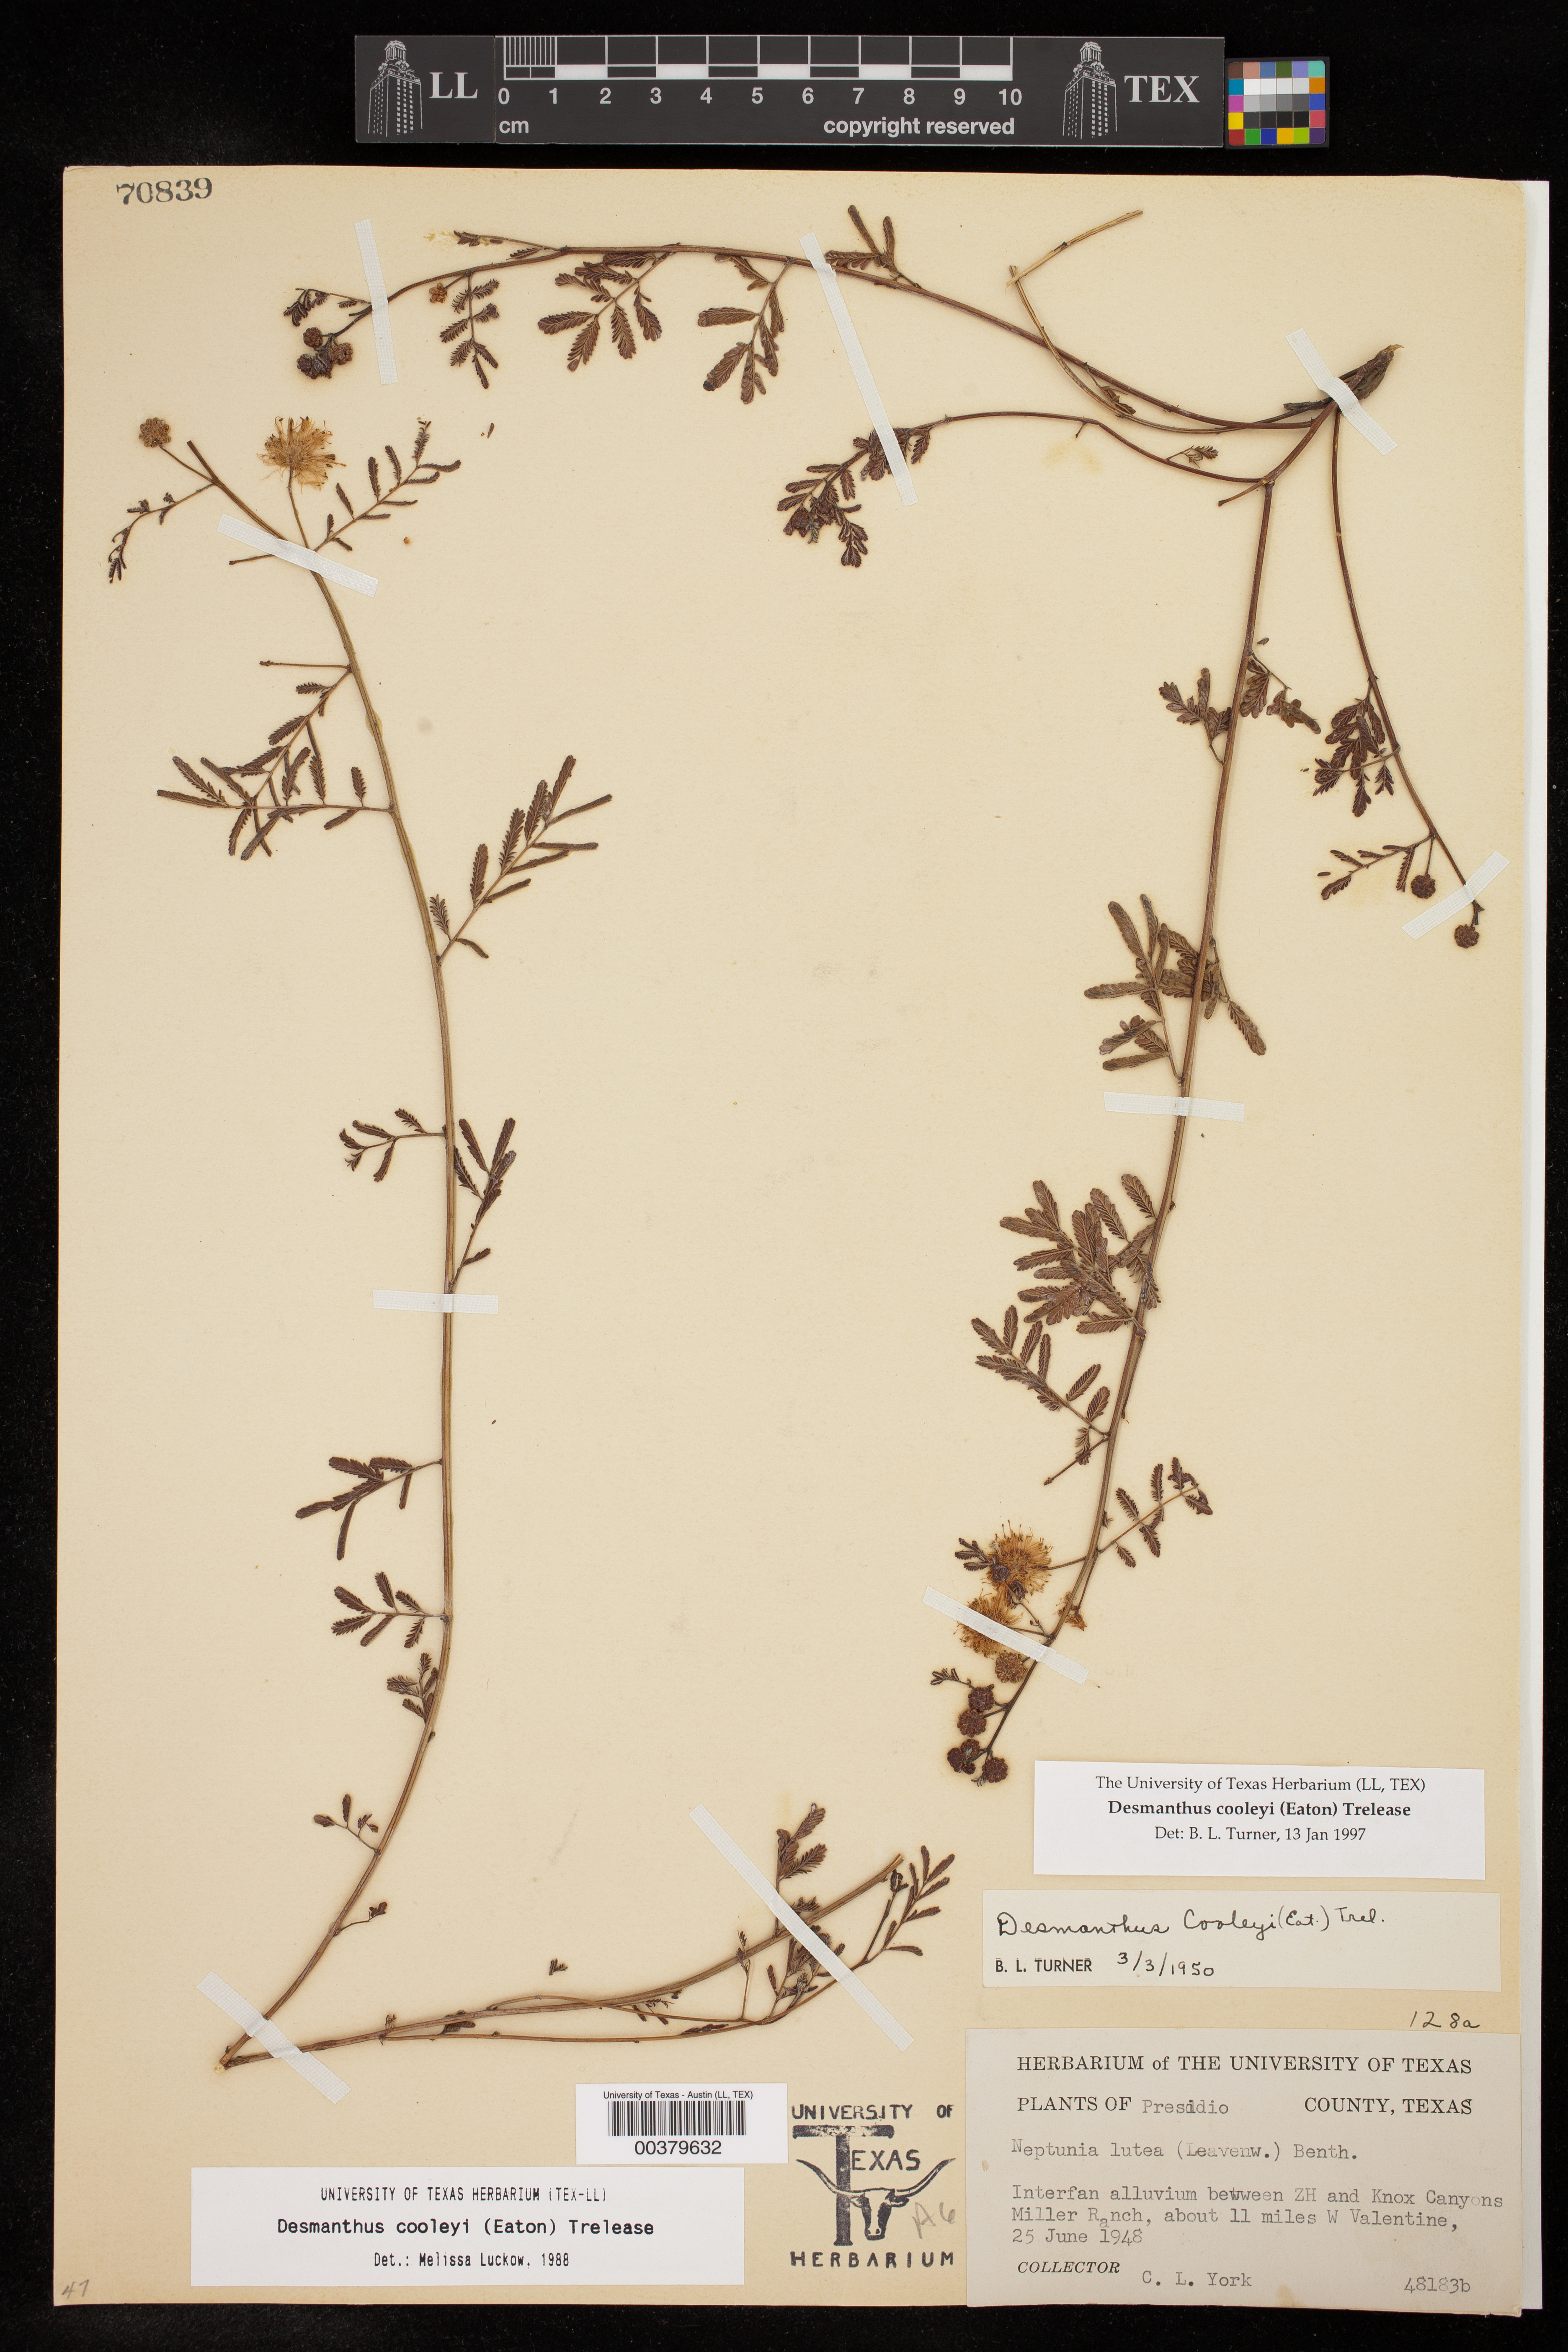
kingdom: Plantae
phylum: Tracheophyta
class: Magnoliopsida
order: Fabales
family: Fabaceae
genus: Desmanthus
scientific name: Desmanthus cooleyi
